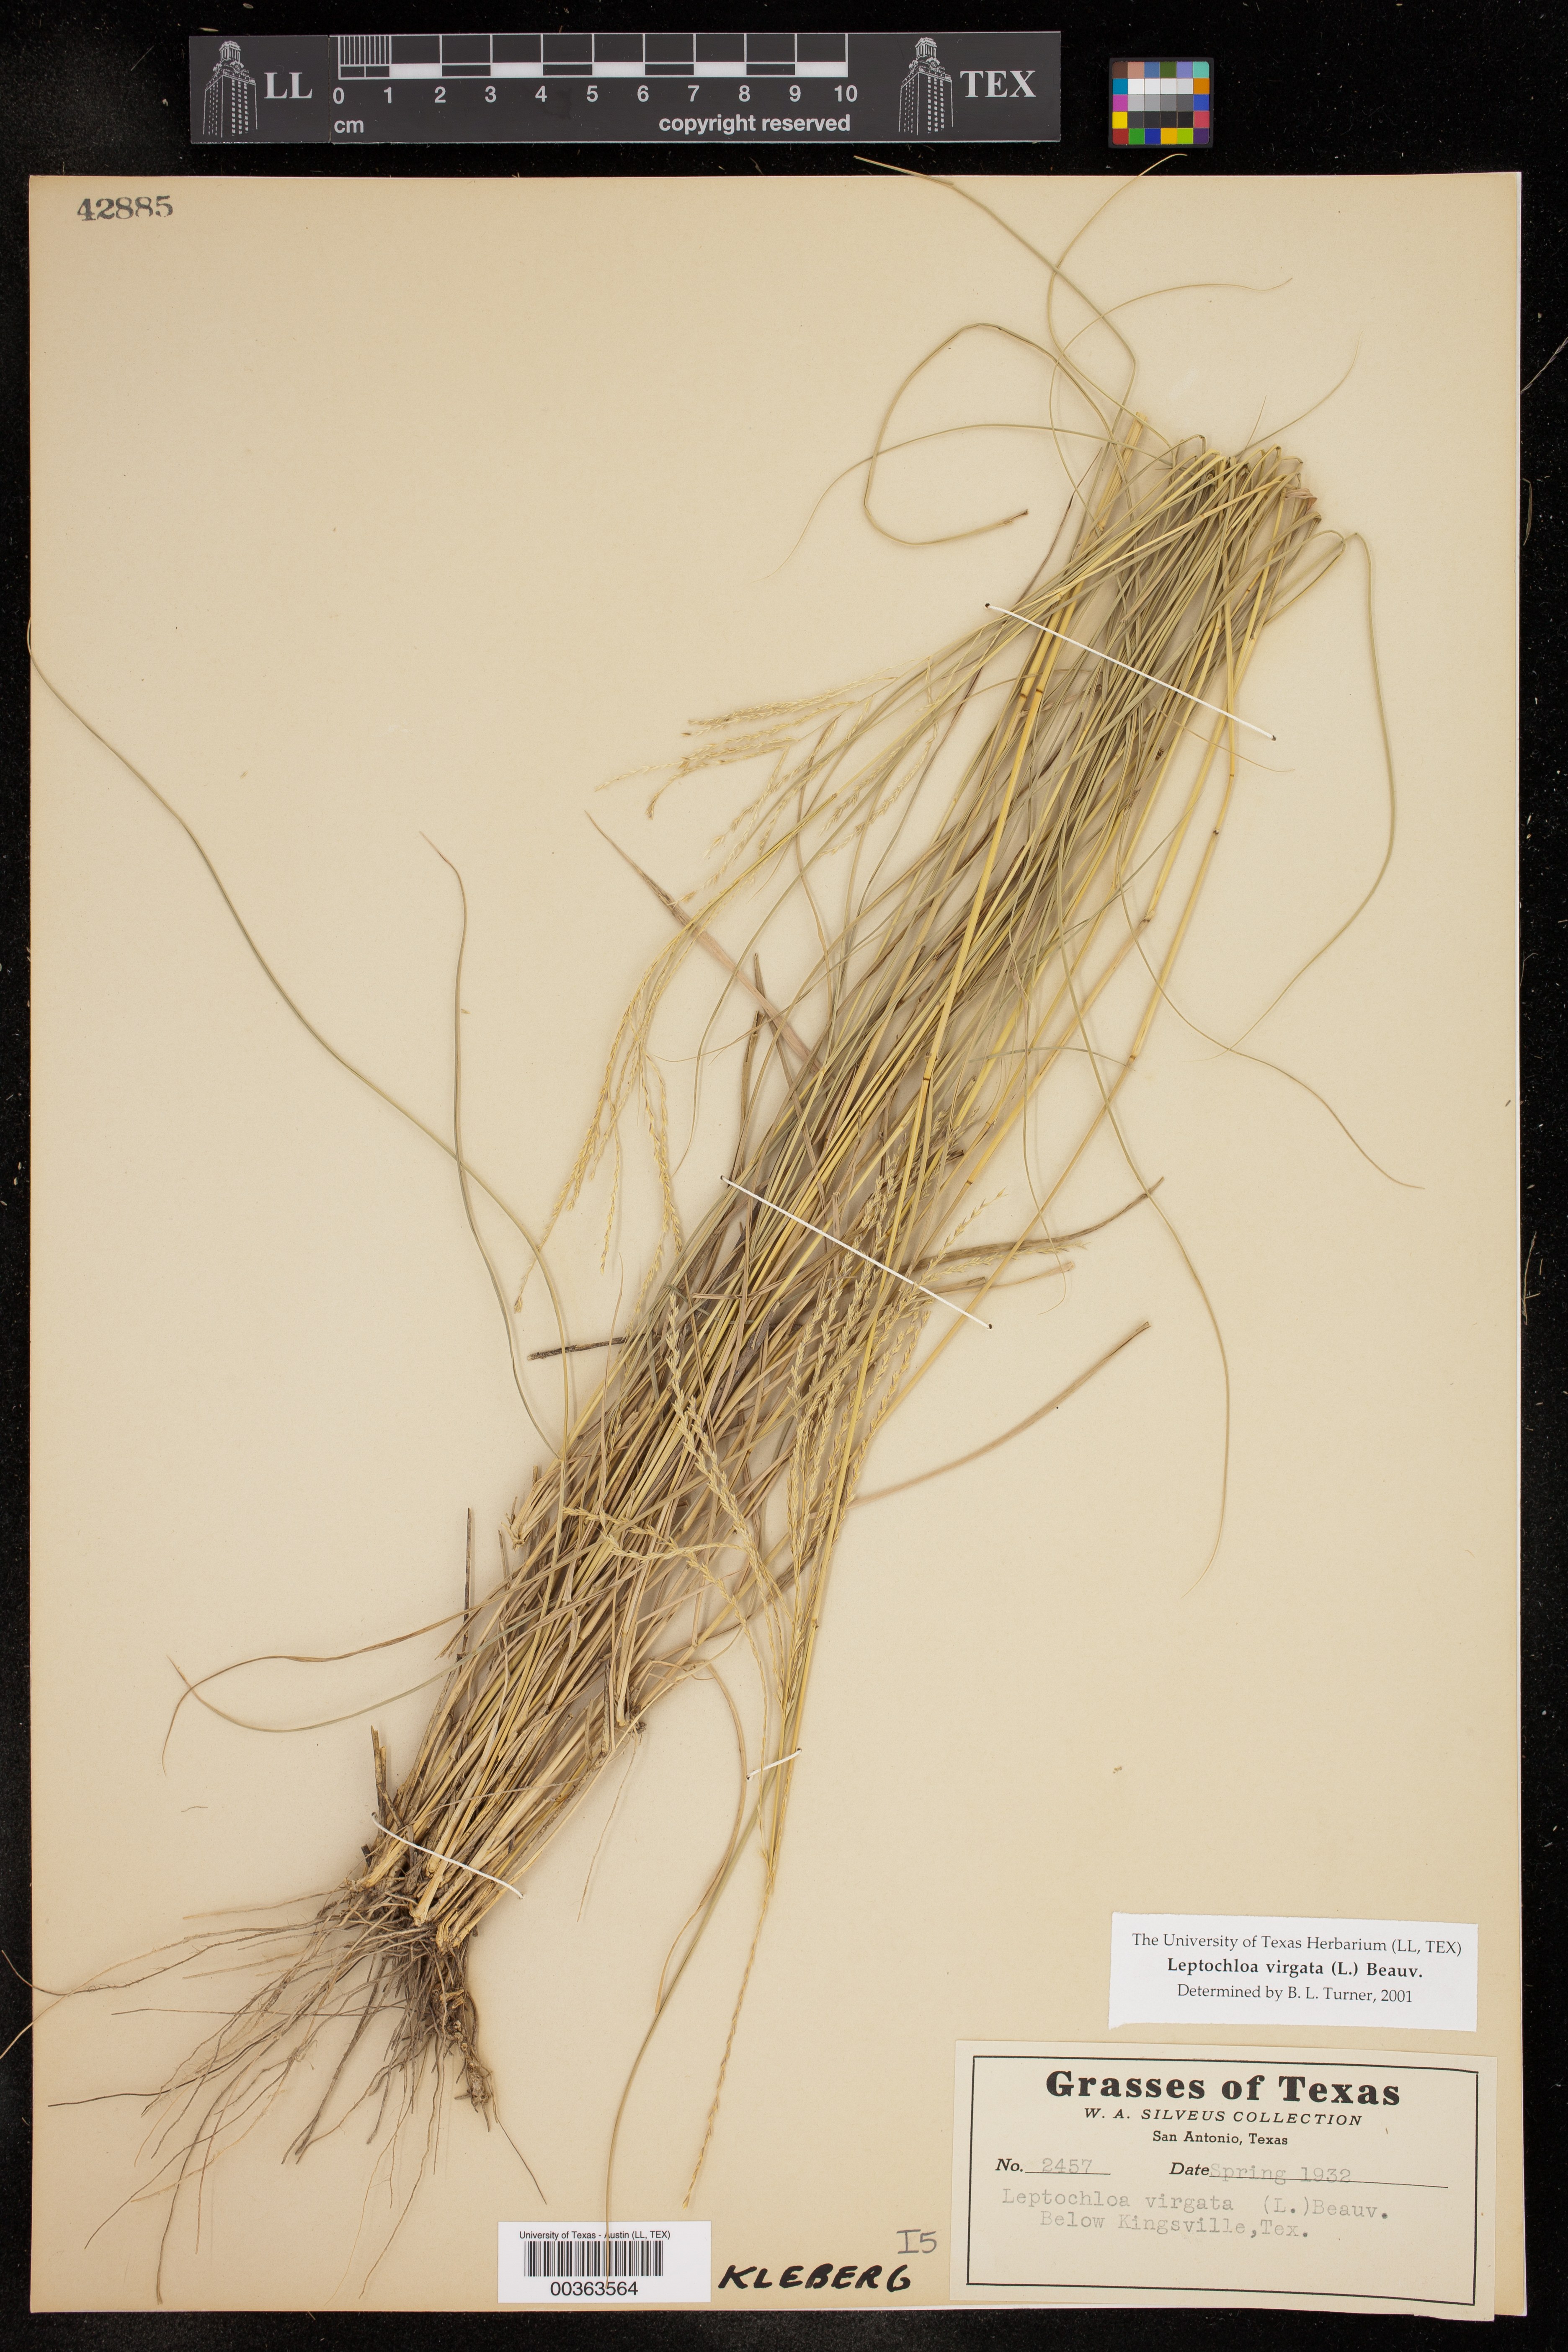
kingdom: Plantae
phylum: Tracheophyta
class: Liliopsida
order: Poales
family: Poaceae
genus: Leptochloa
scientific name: Leptochloa virgata
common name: Tropical sprangletop
